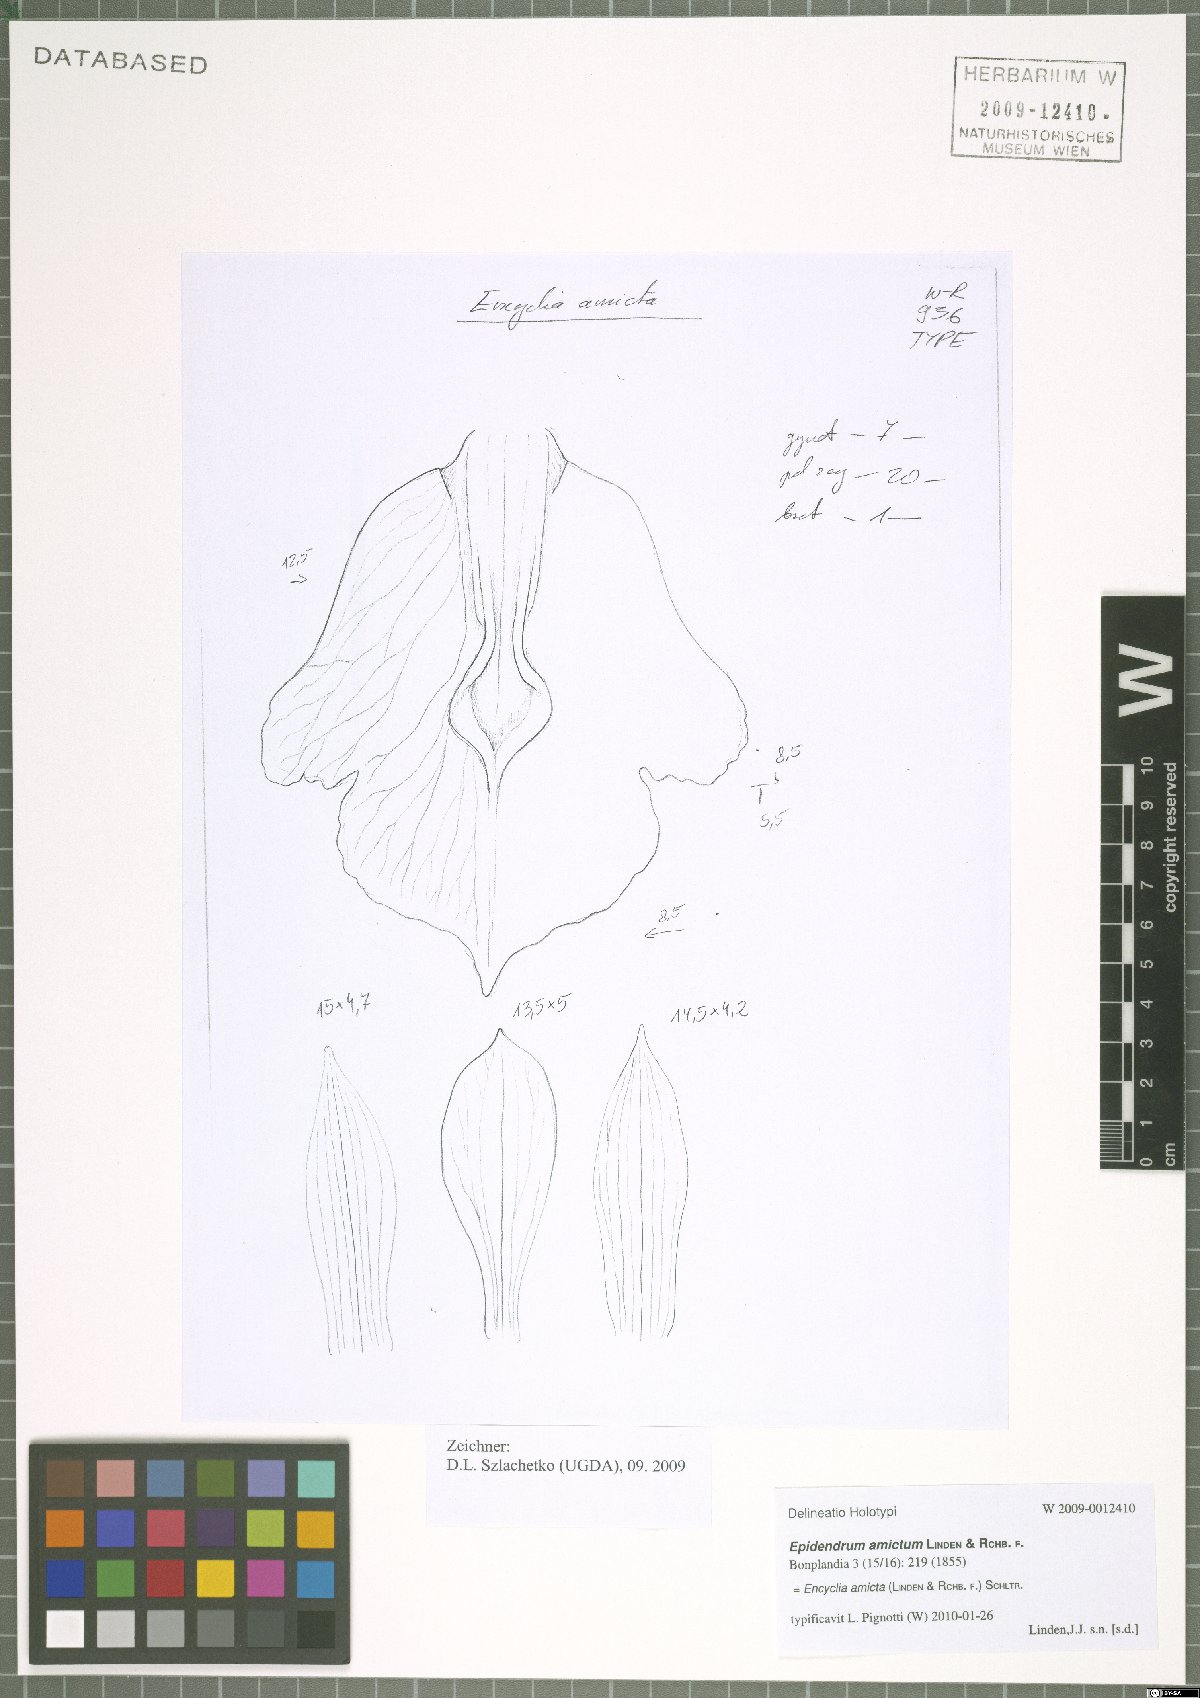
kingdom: Plantae
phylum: Tracheophyta
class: Liliopsida
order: Asparagales
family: Orchidaceae
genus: Epidendrum
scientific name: Epidendrum amictum
